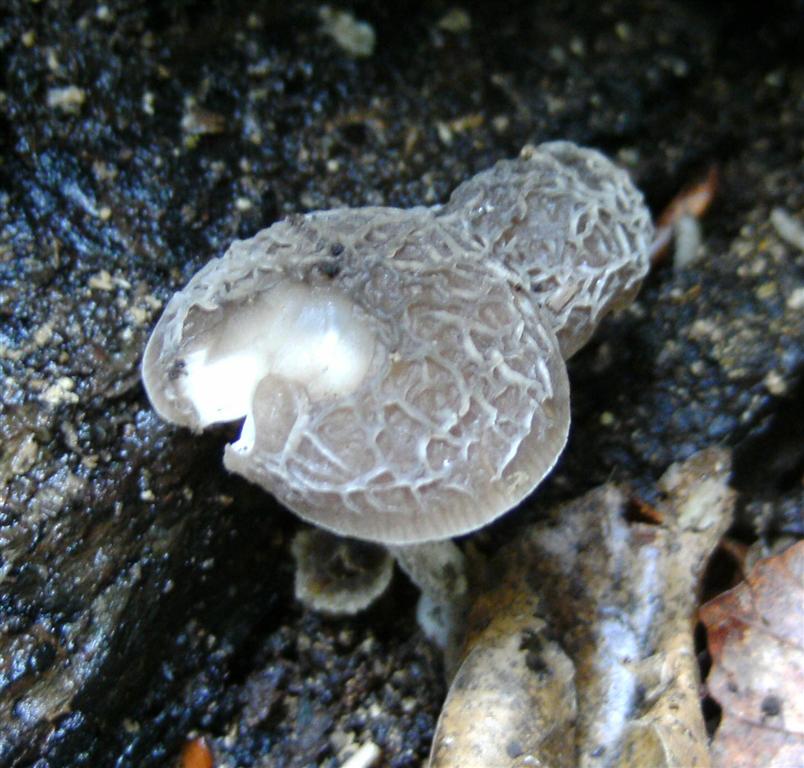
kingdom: Fungi
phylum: Basidiomycota
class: Agaricomycetes
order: Agaricales
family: Pluteaceae
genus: Pluteus
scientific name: Pluteus
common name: gråstokket skærmhat
